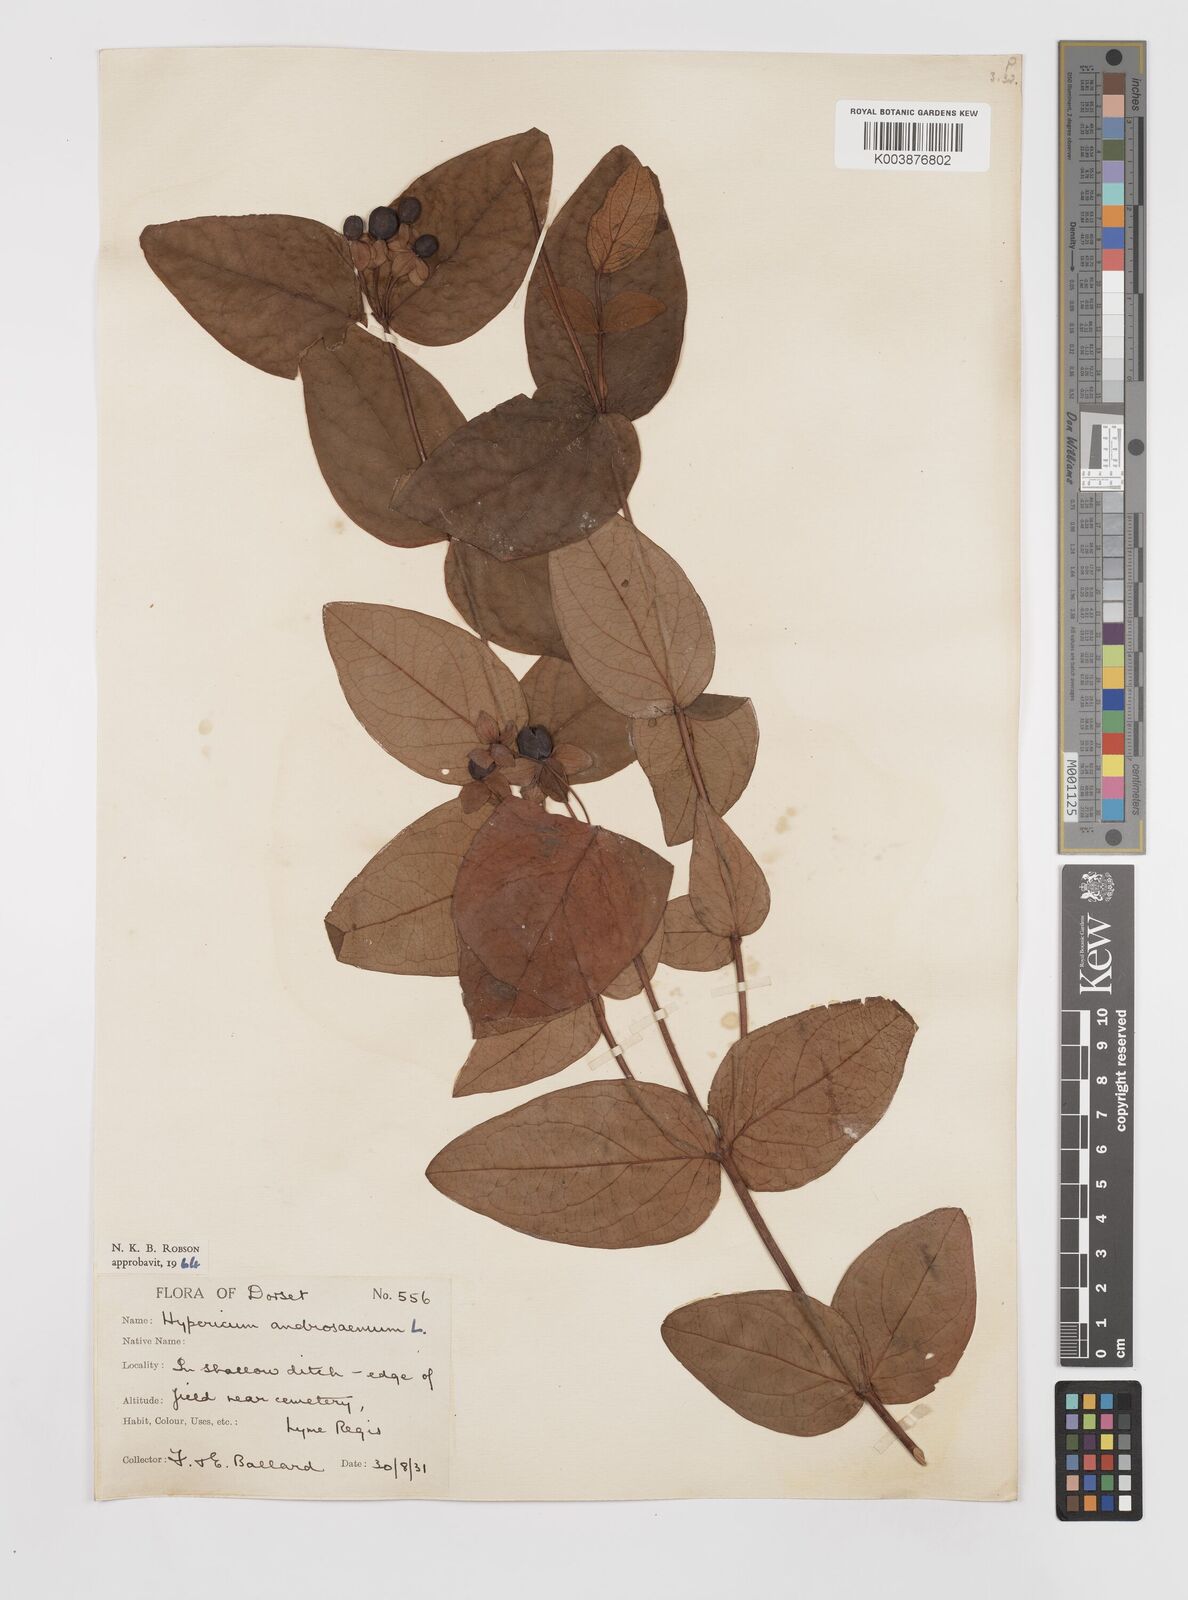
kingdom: Plantae
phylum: Tracheophyta
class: Magnoliopsida
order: Malpighiales
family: Hypericaceae
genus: Hypericum
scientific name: Hypericum androsaemum
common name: Sweet-amber
